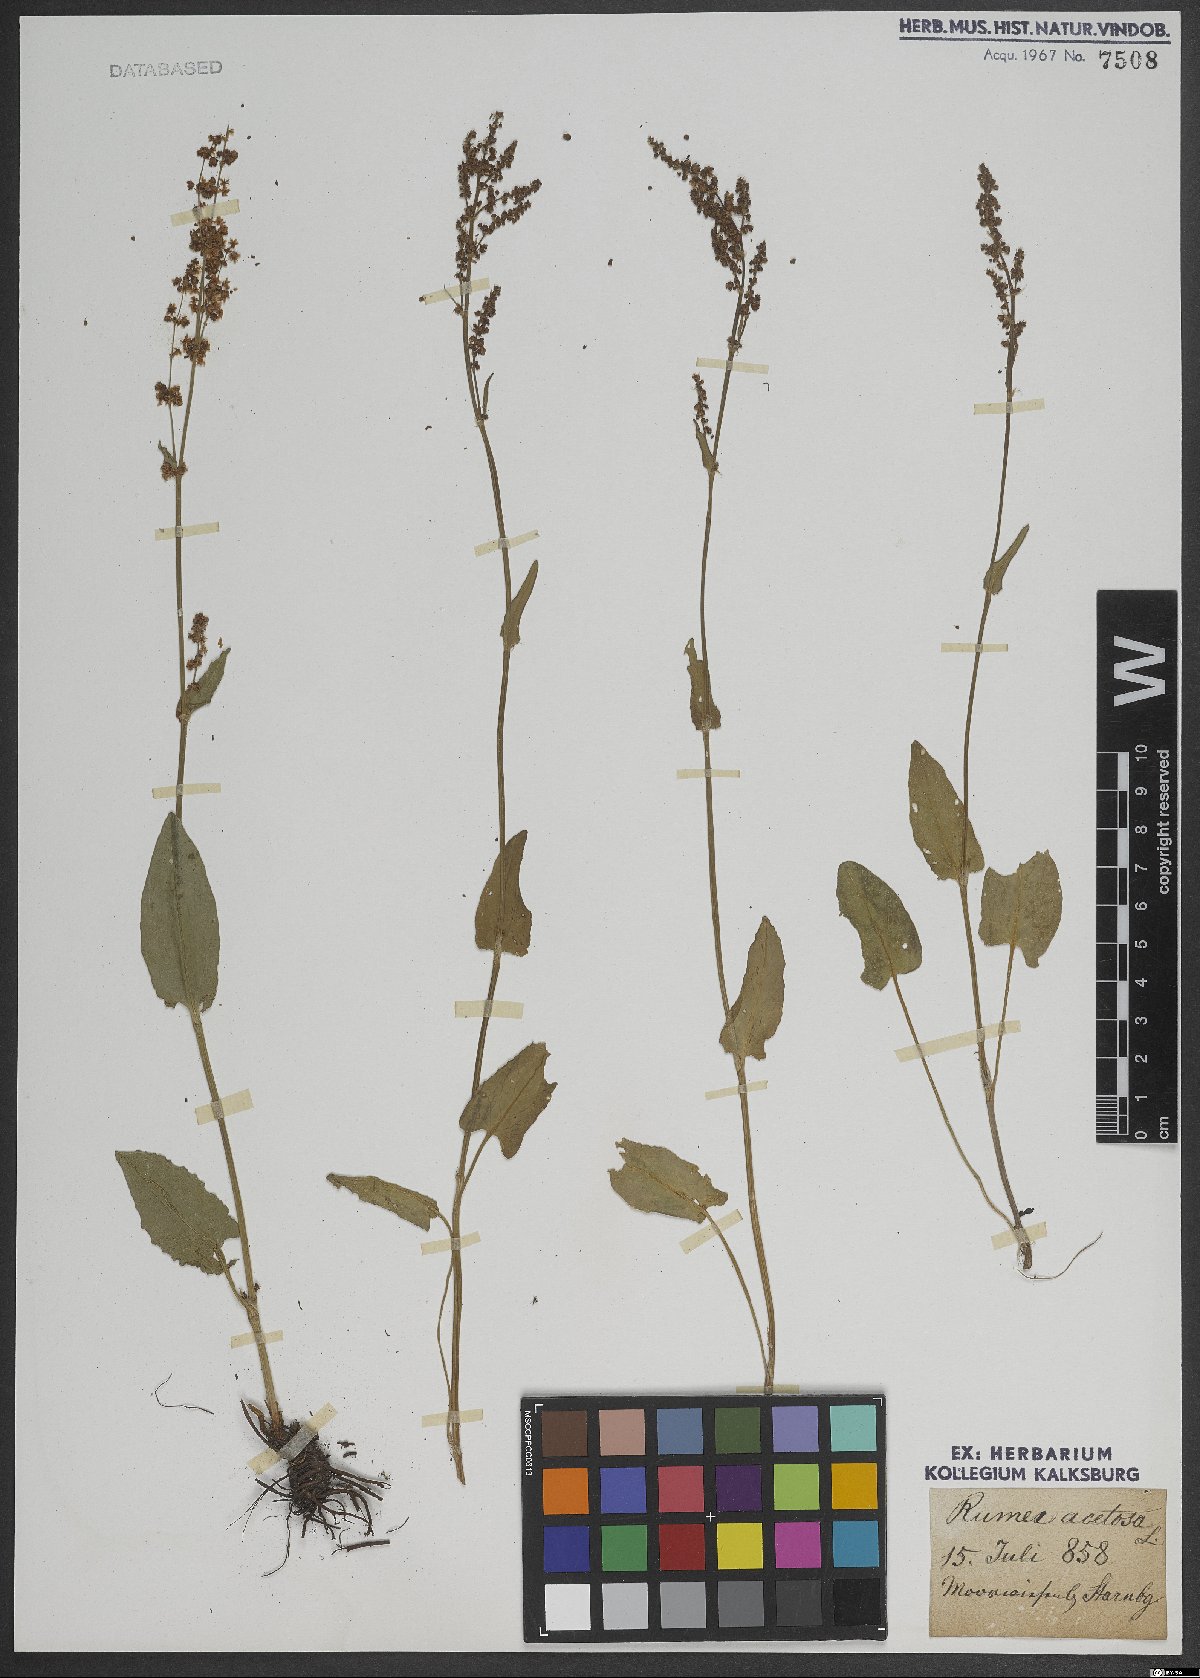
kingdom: Plantae
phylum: Tracheophyta
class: Magnoliopsida
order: Caryophyllales
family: Polygonaceae
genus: Rumex
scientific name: Rumex acetosa
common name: Garden sorrel
